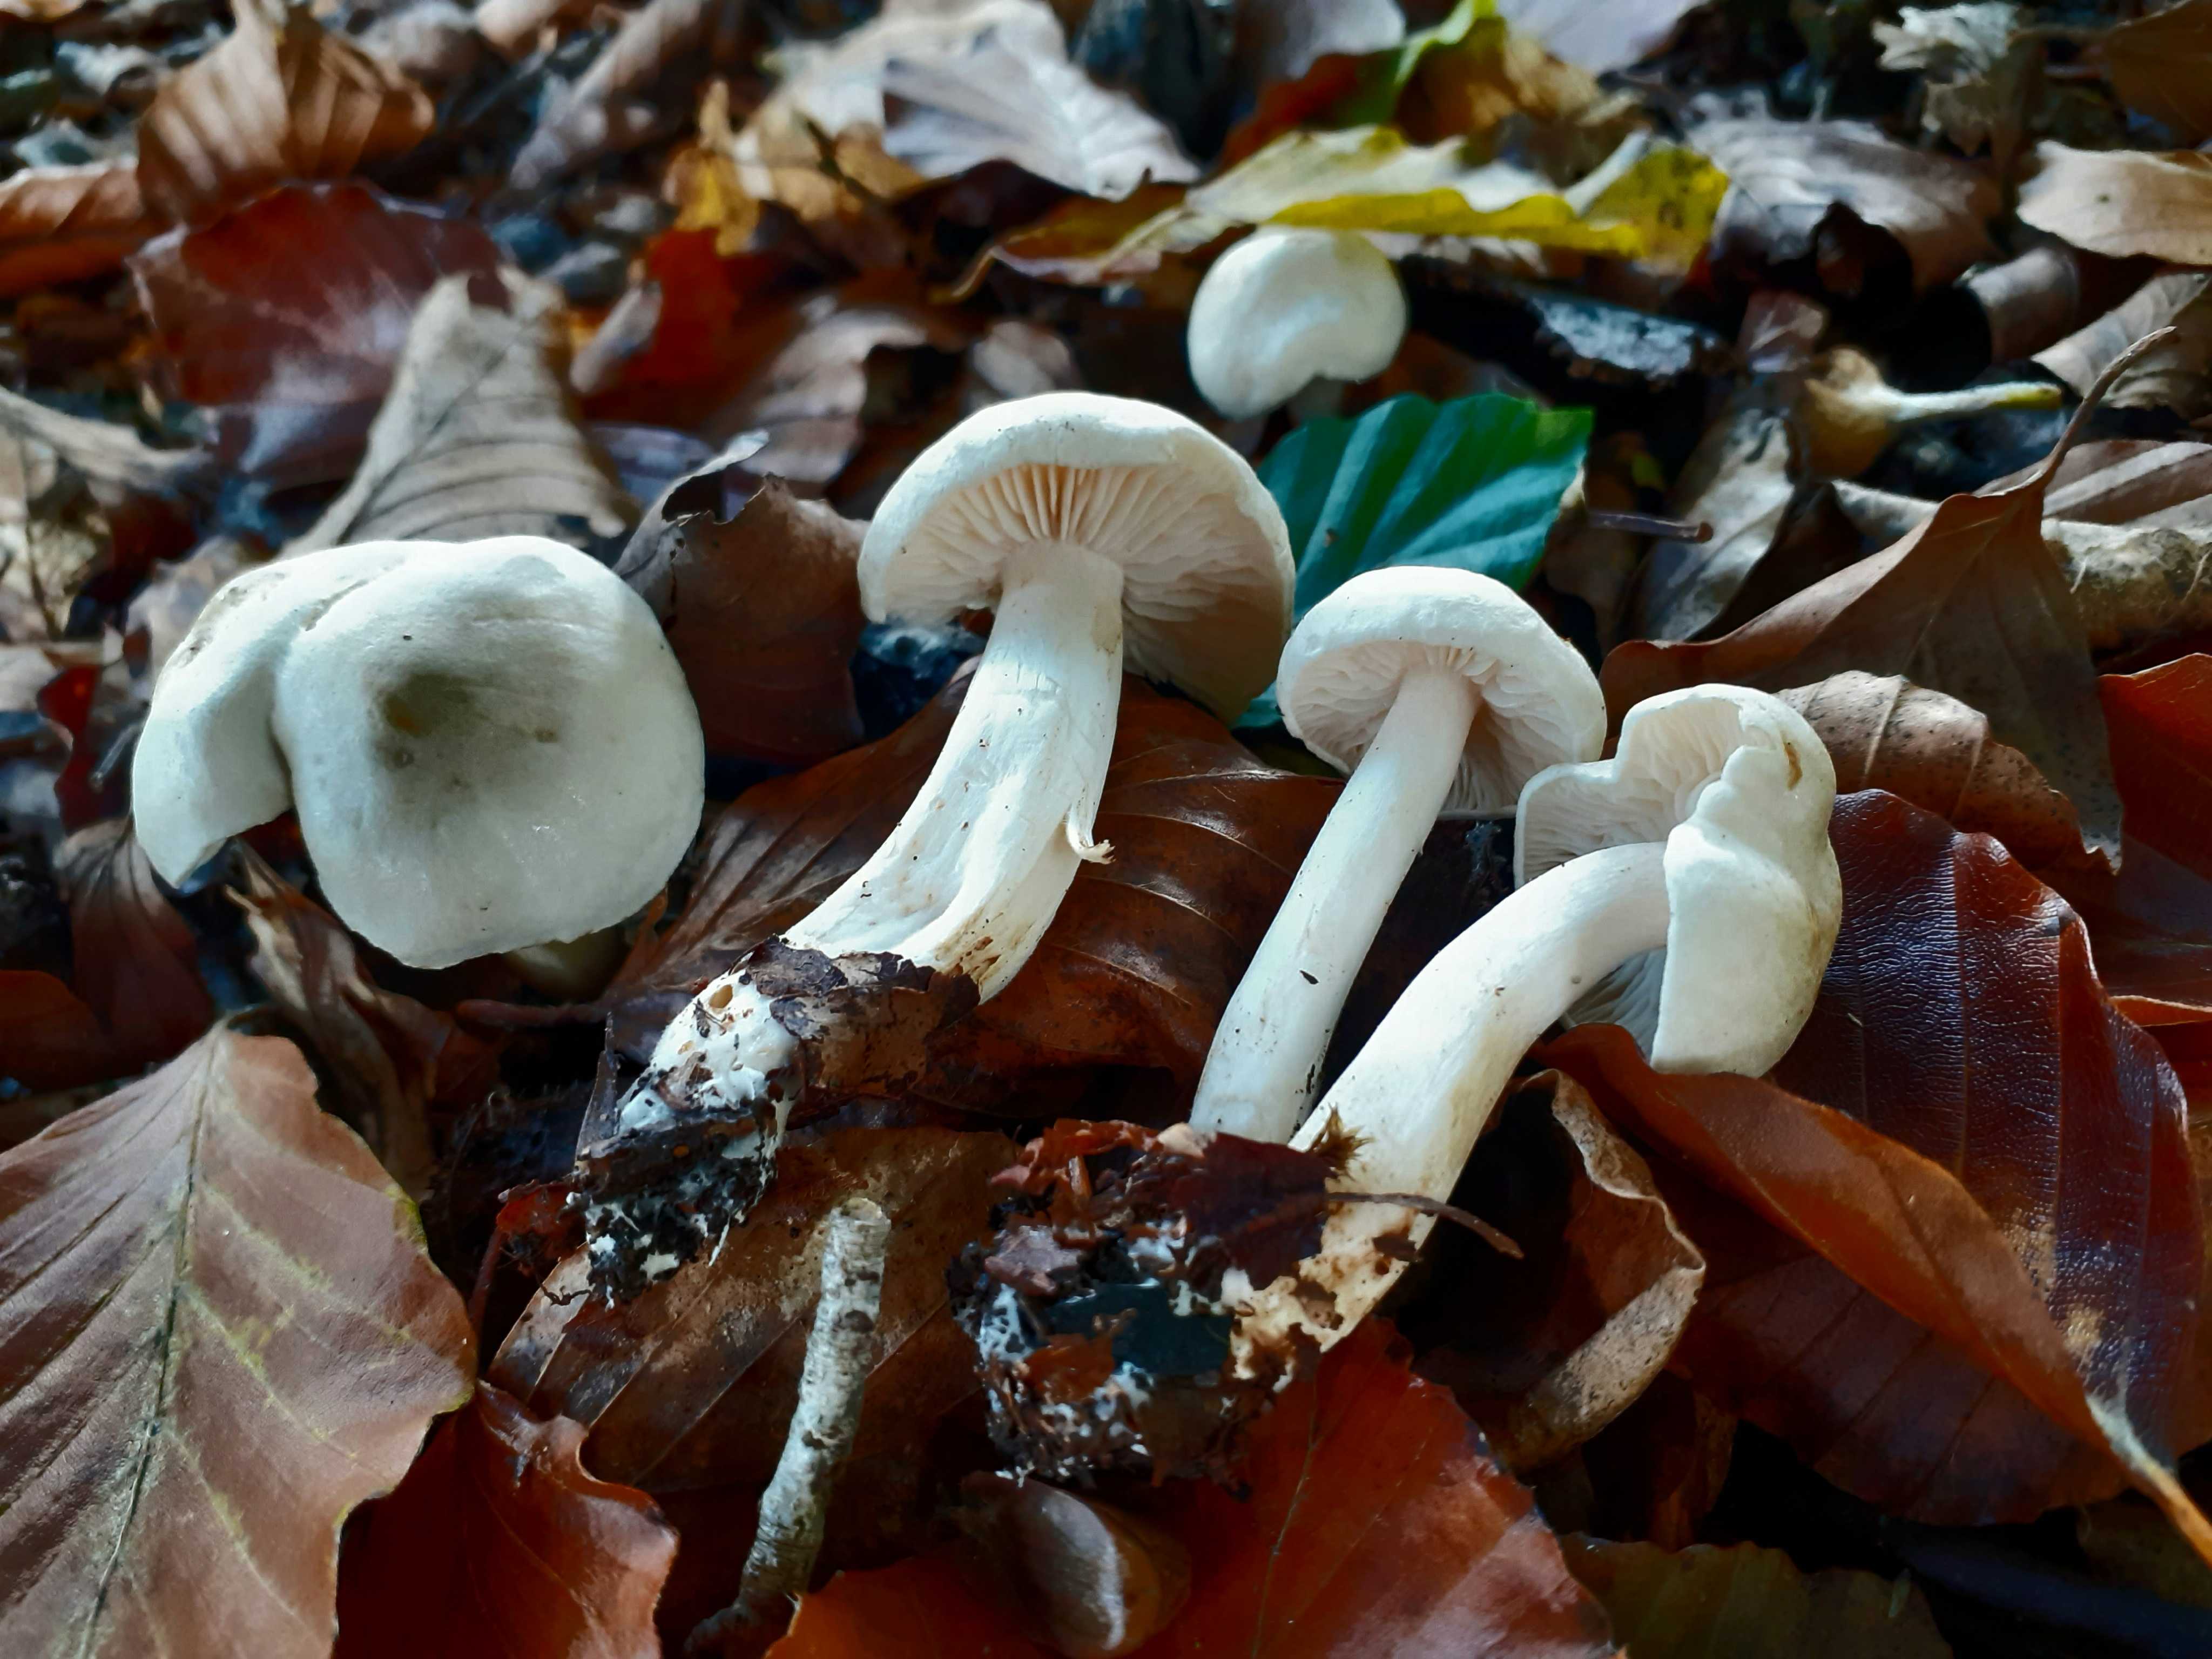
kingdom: Fungi
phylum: Basidiomycota
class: Agaricomycetes
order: Agaricales
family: Tricholomataceae
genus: Tricholoma
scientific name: Tricholoma lascivum
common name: stinkende ridderhat
